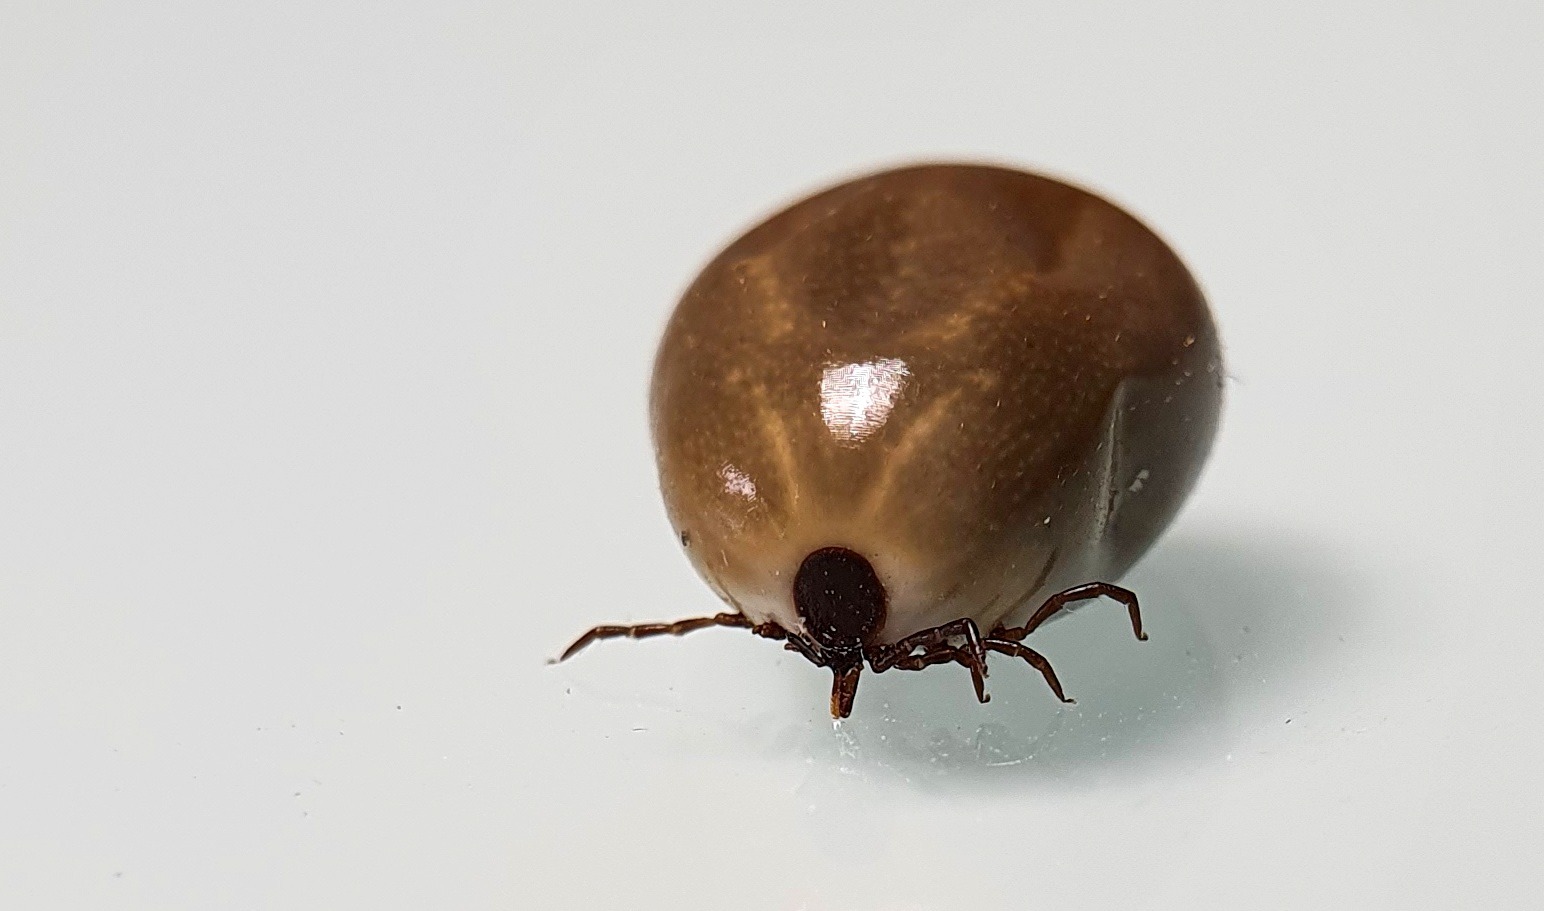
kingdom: Animalia
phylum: Arthropoda
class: Arachnida
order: Ixodida
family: Ixodidae
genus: Ixodes
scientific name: Ixodes ricinus
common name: Skovflåt
